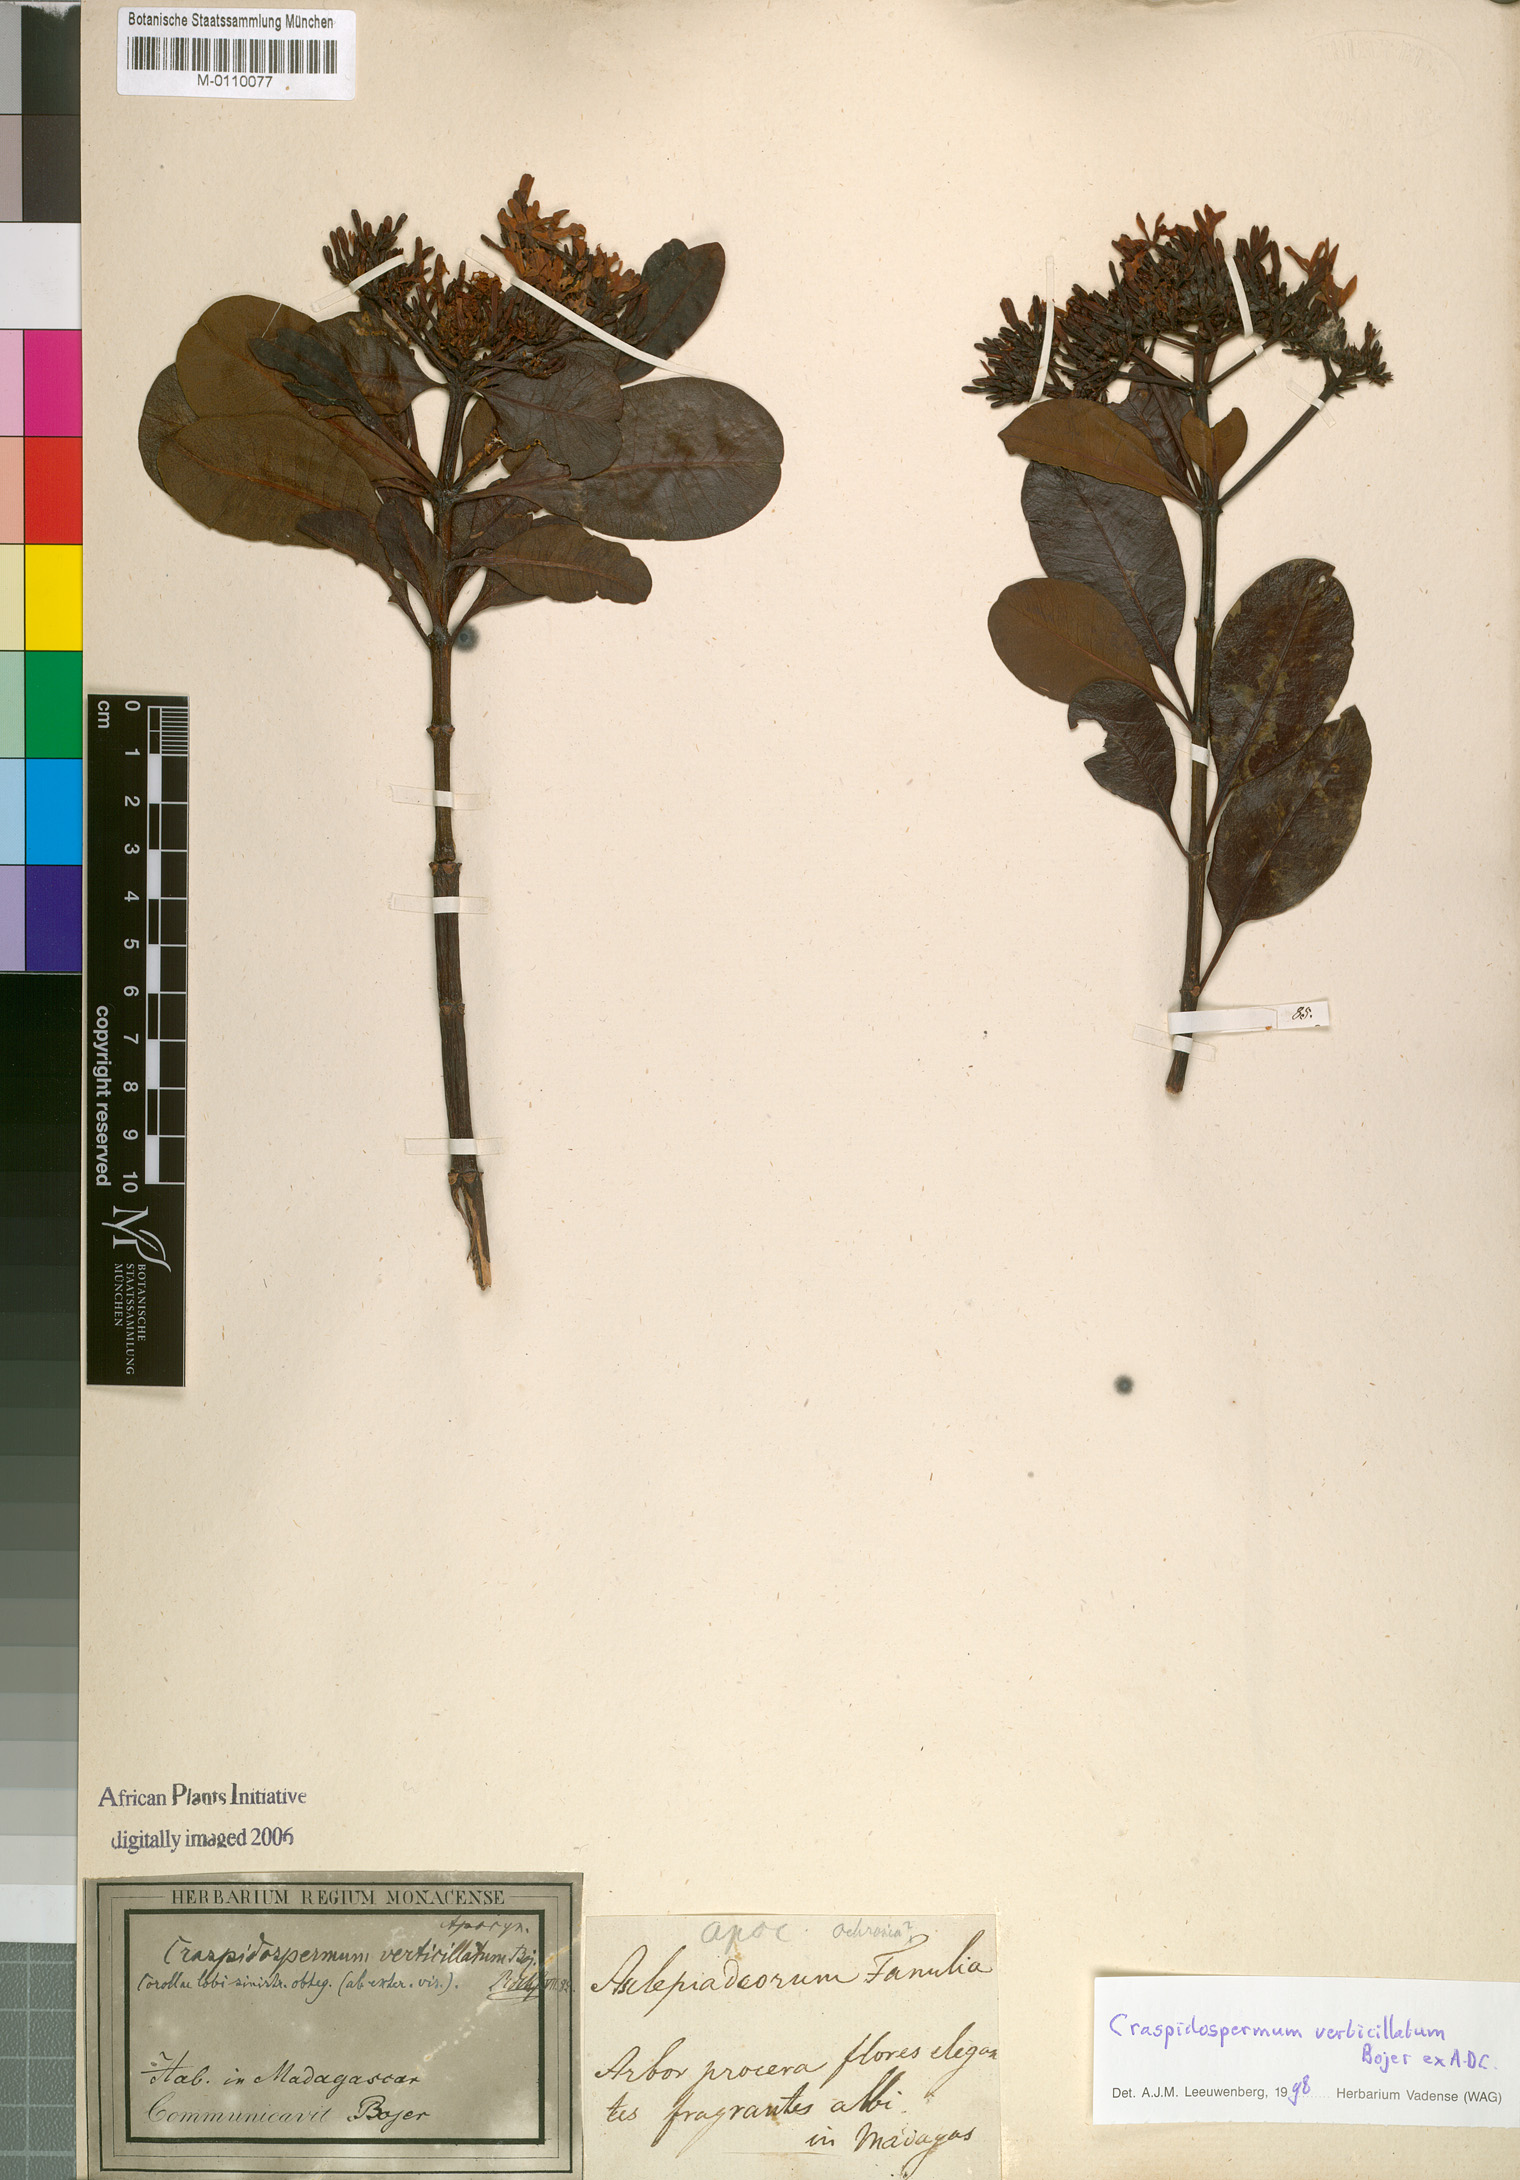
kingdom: Plantae
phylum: Tracheophyta
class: Magnoliopsida
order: Gentianales
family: Apocynaceae
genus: Craspidospermum
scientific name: Craspidospermum verticillatum
